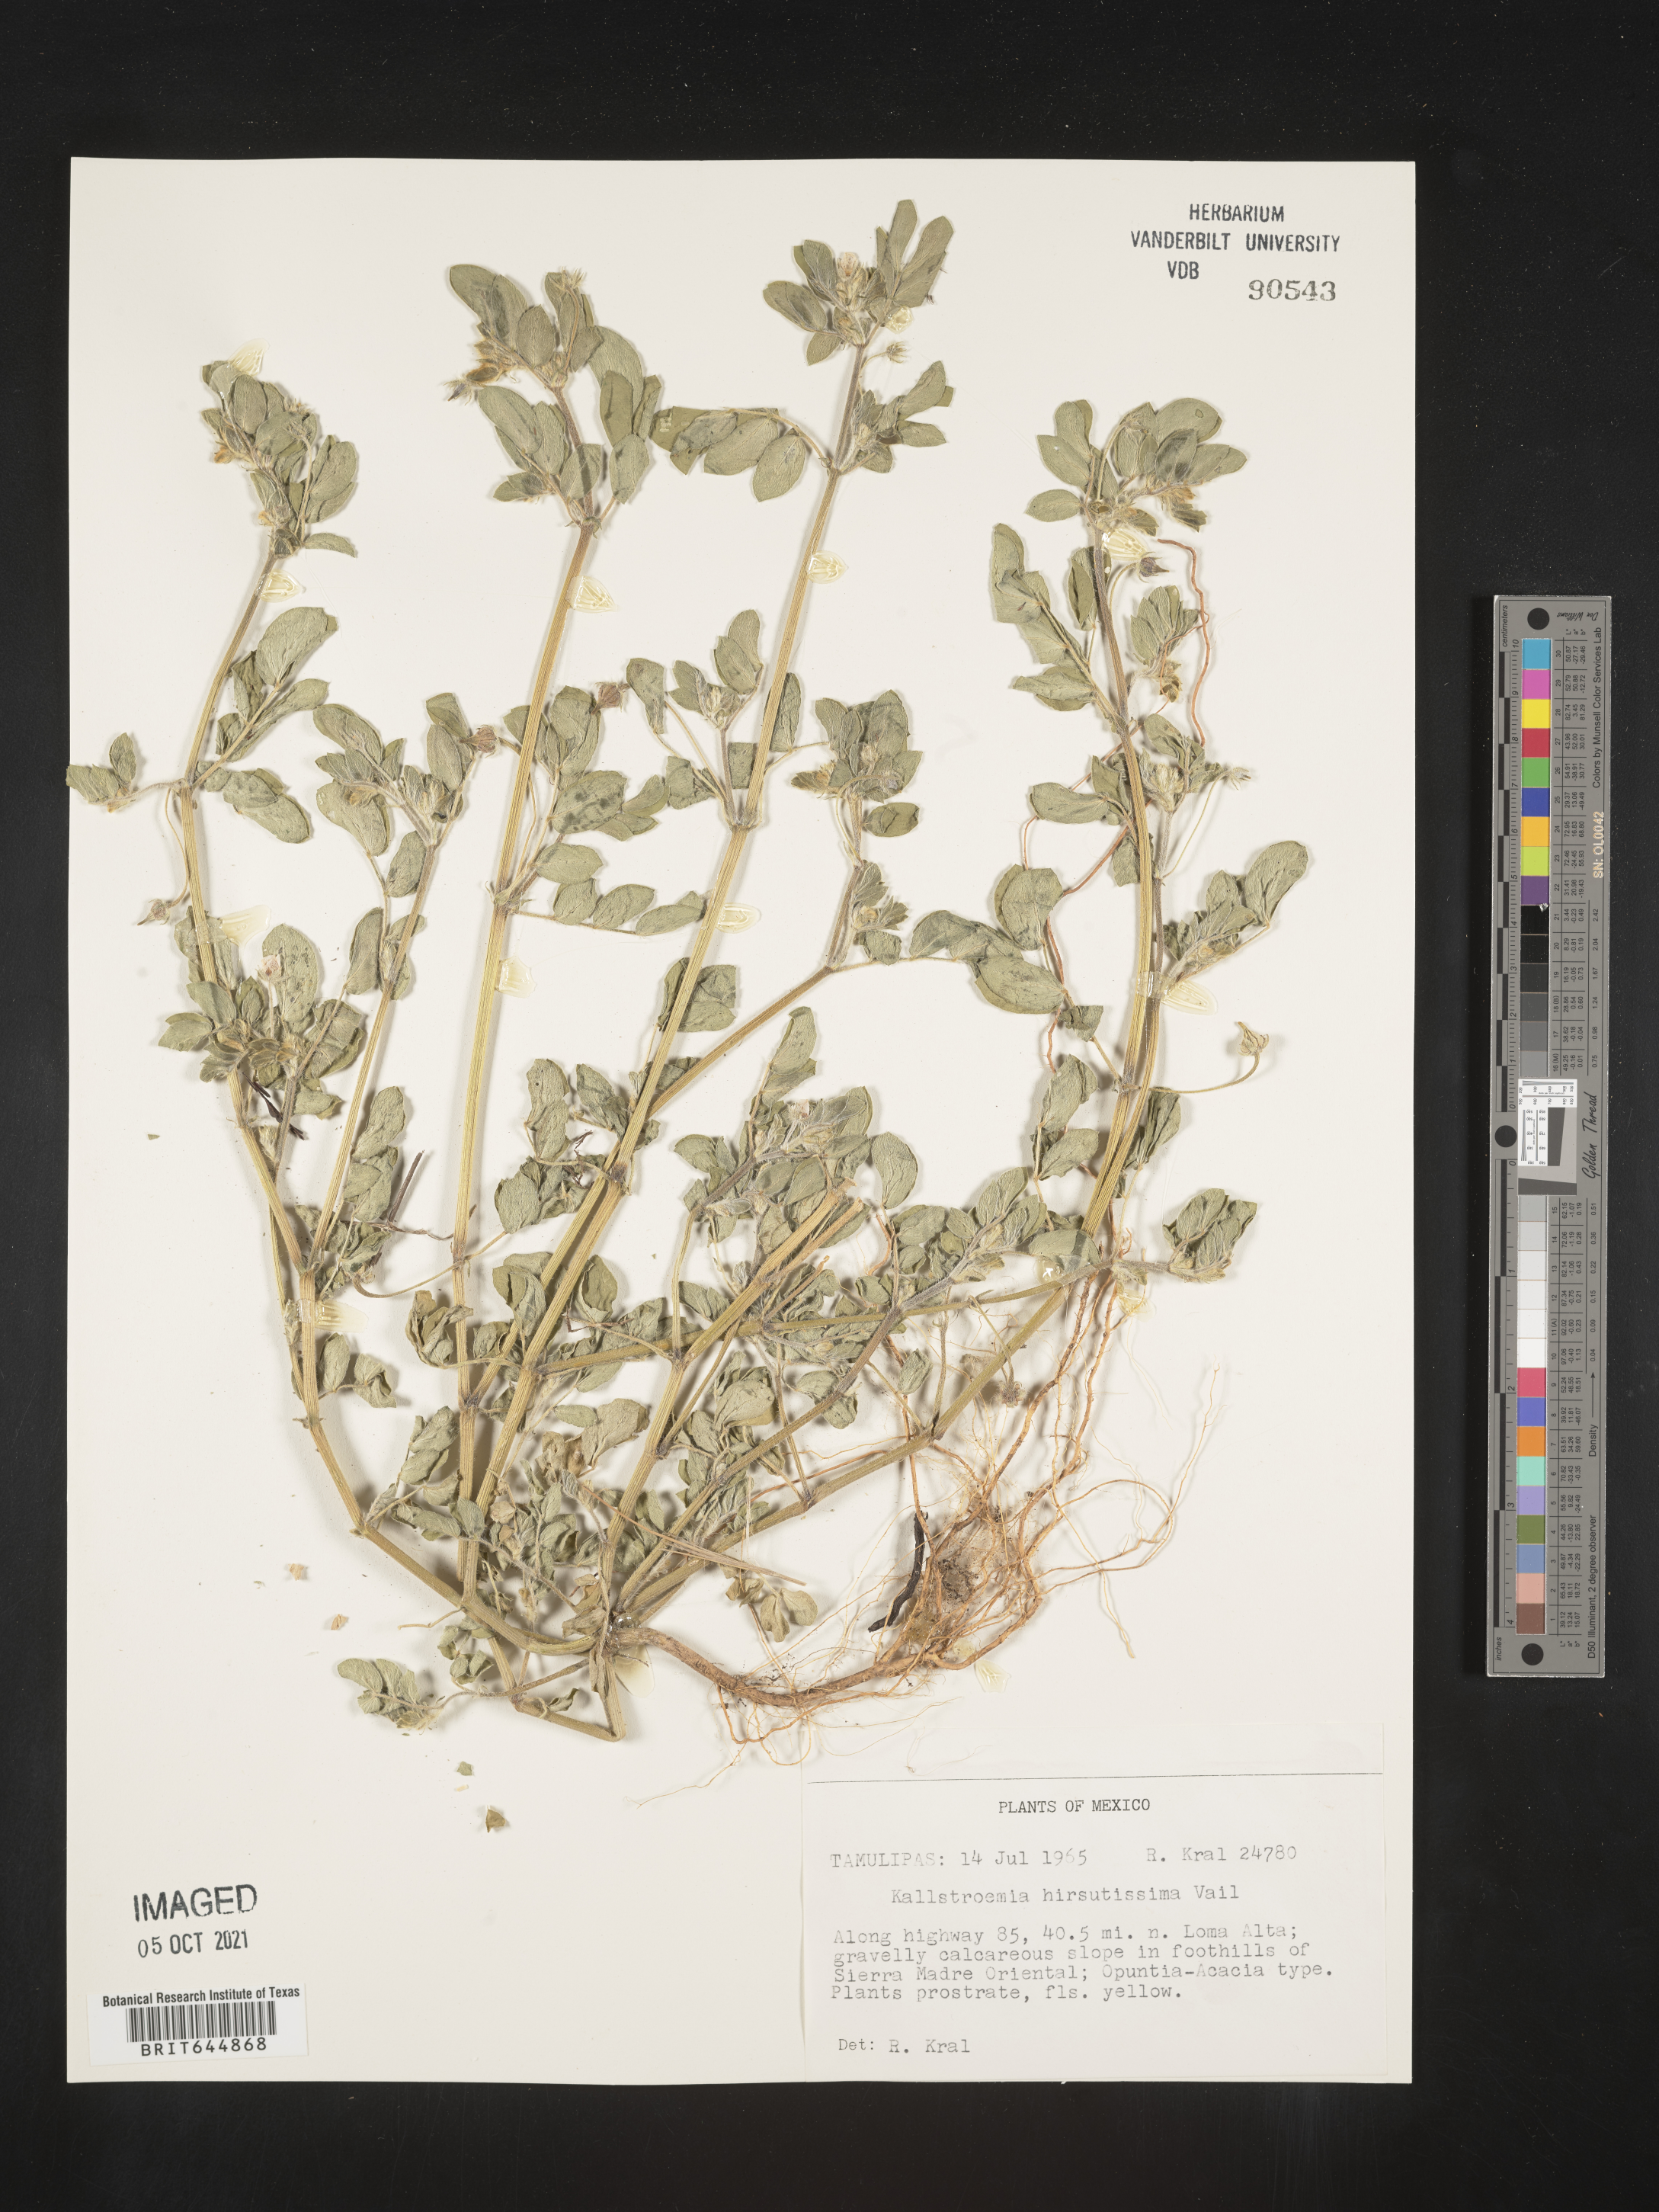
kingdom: Plantae
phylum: Tracheophyta
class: Magnoliopsida
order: Zygophyllales
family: Zygophyllaceae
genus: Kallstroemia
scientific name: Kallstroemia
